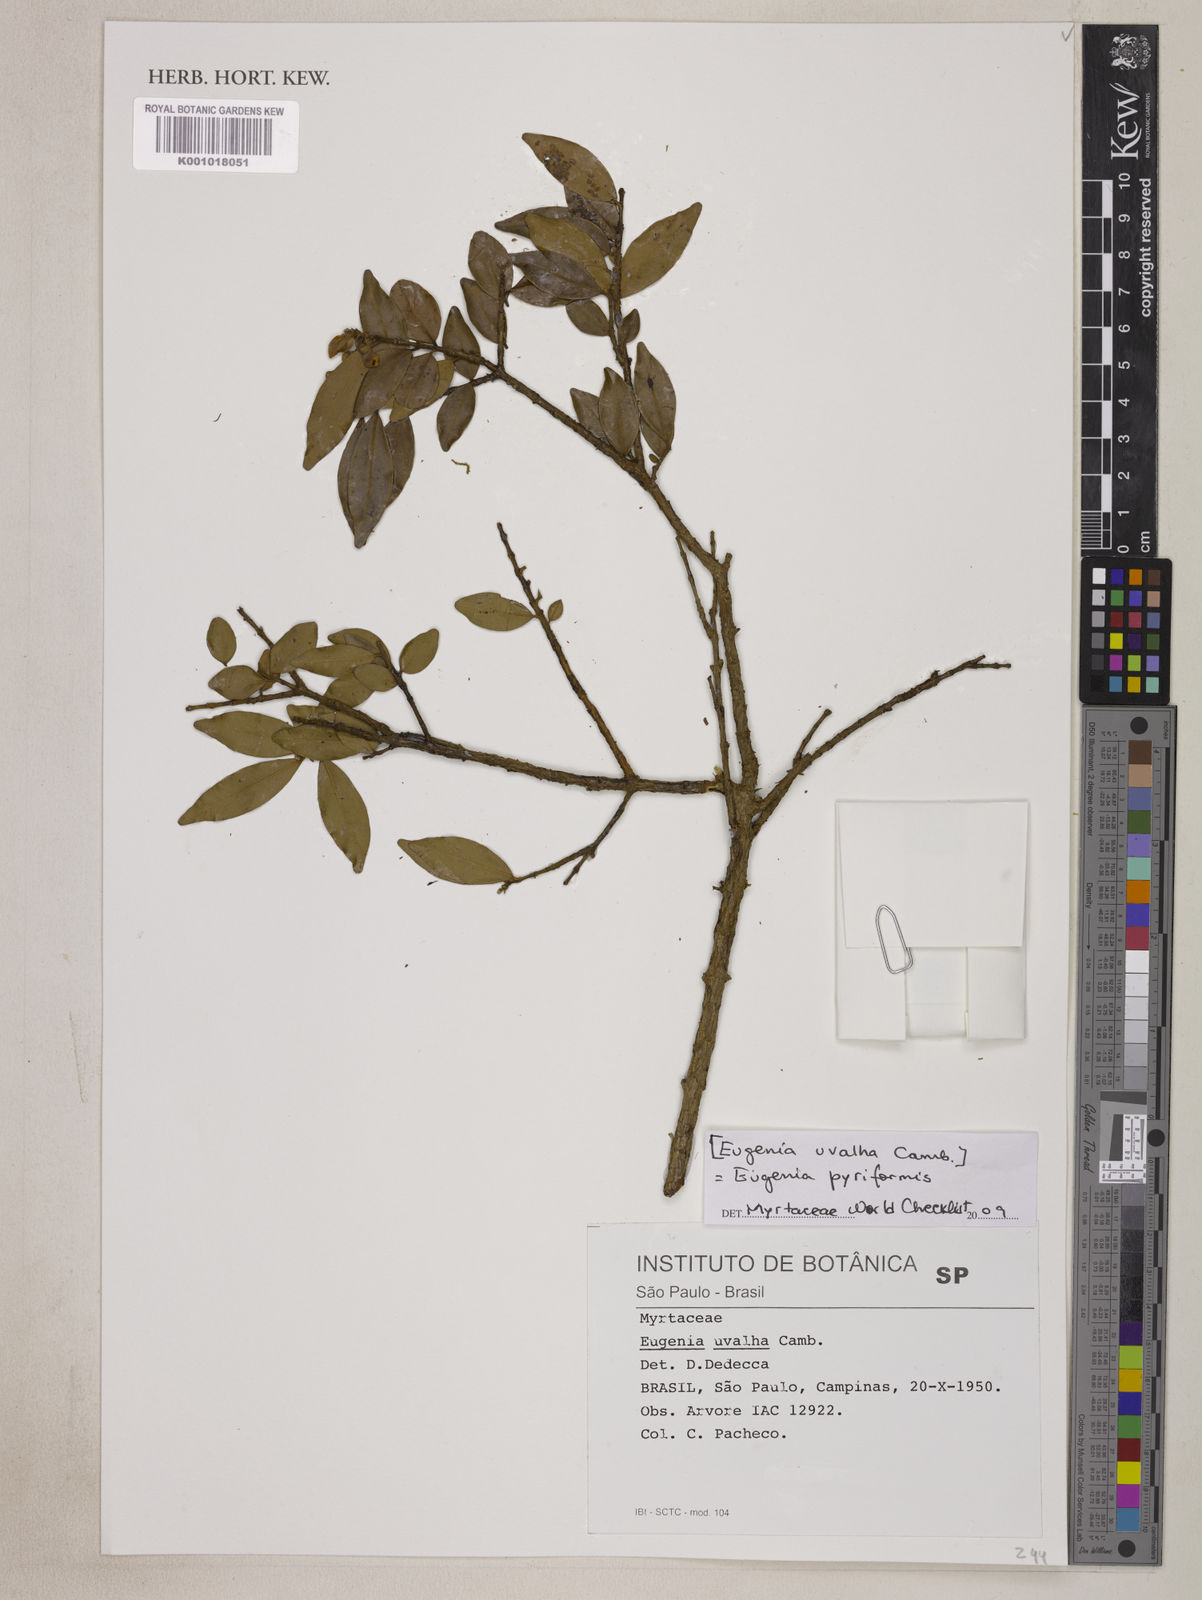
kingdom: Plantae
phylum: Tracheophyta
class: Magnoliopsida
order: Myrtales
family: Myrtaceae
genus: Eugenia
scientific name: Eugenia pyriformis
